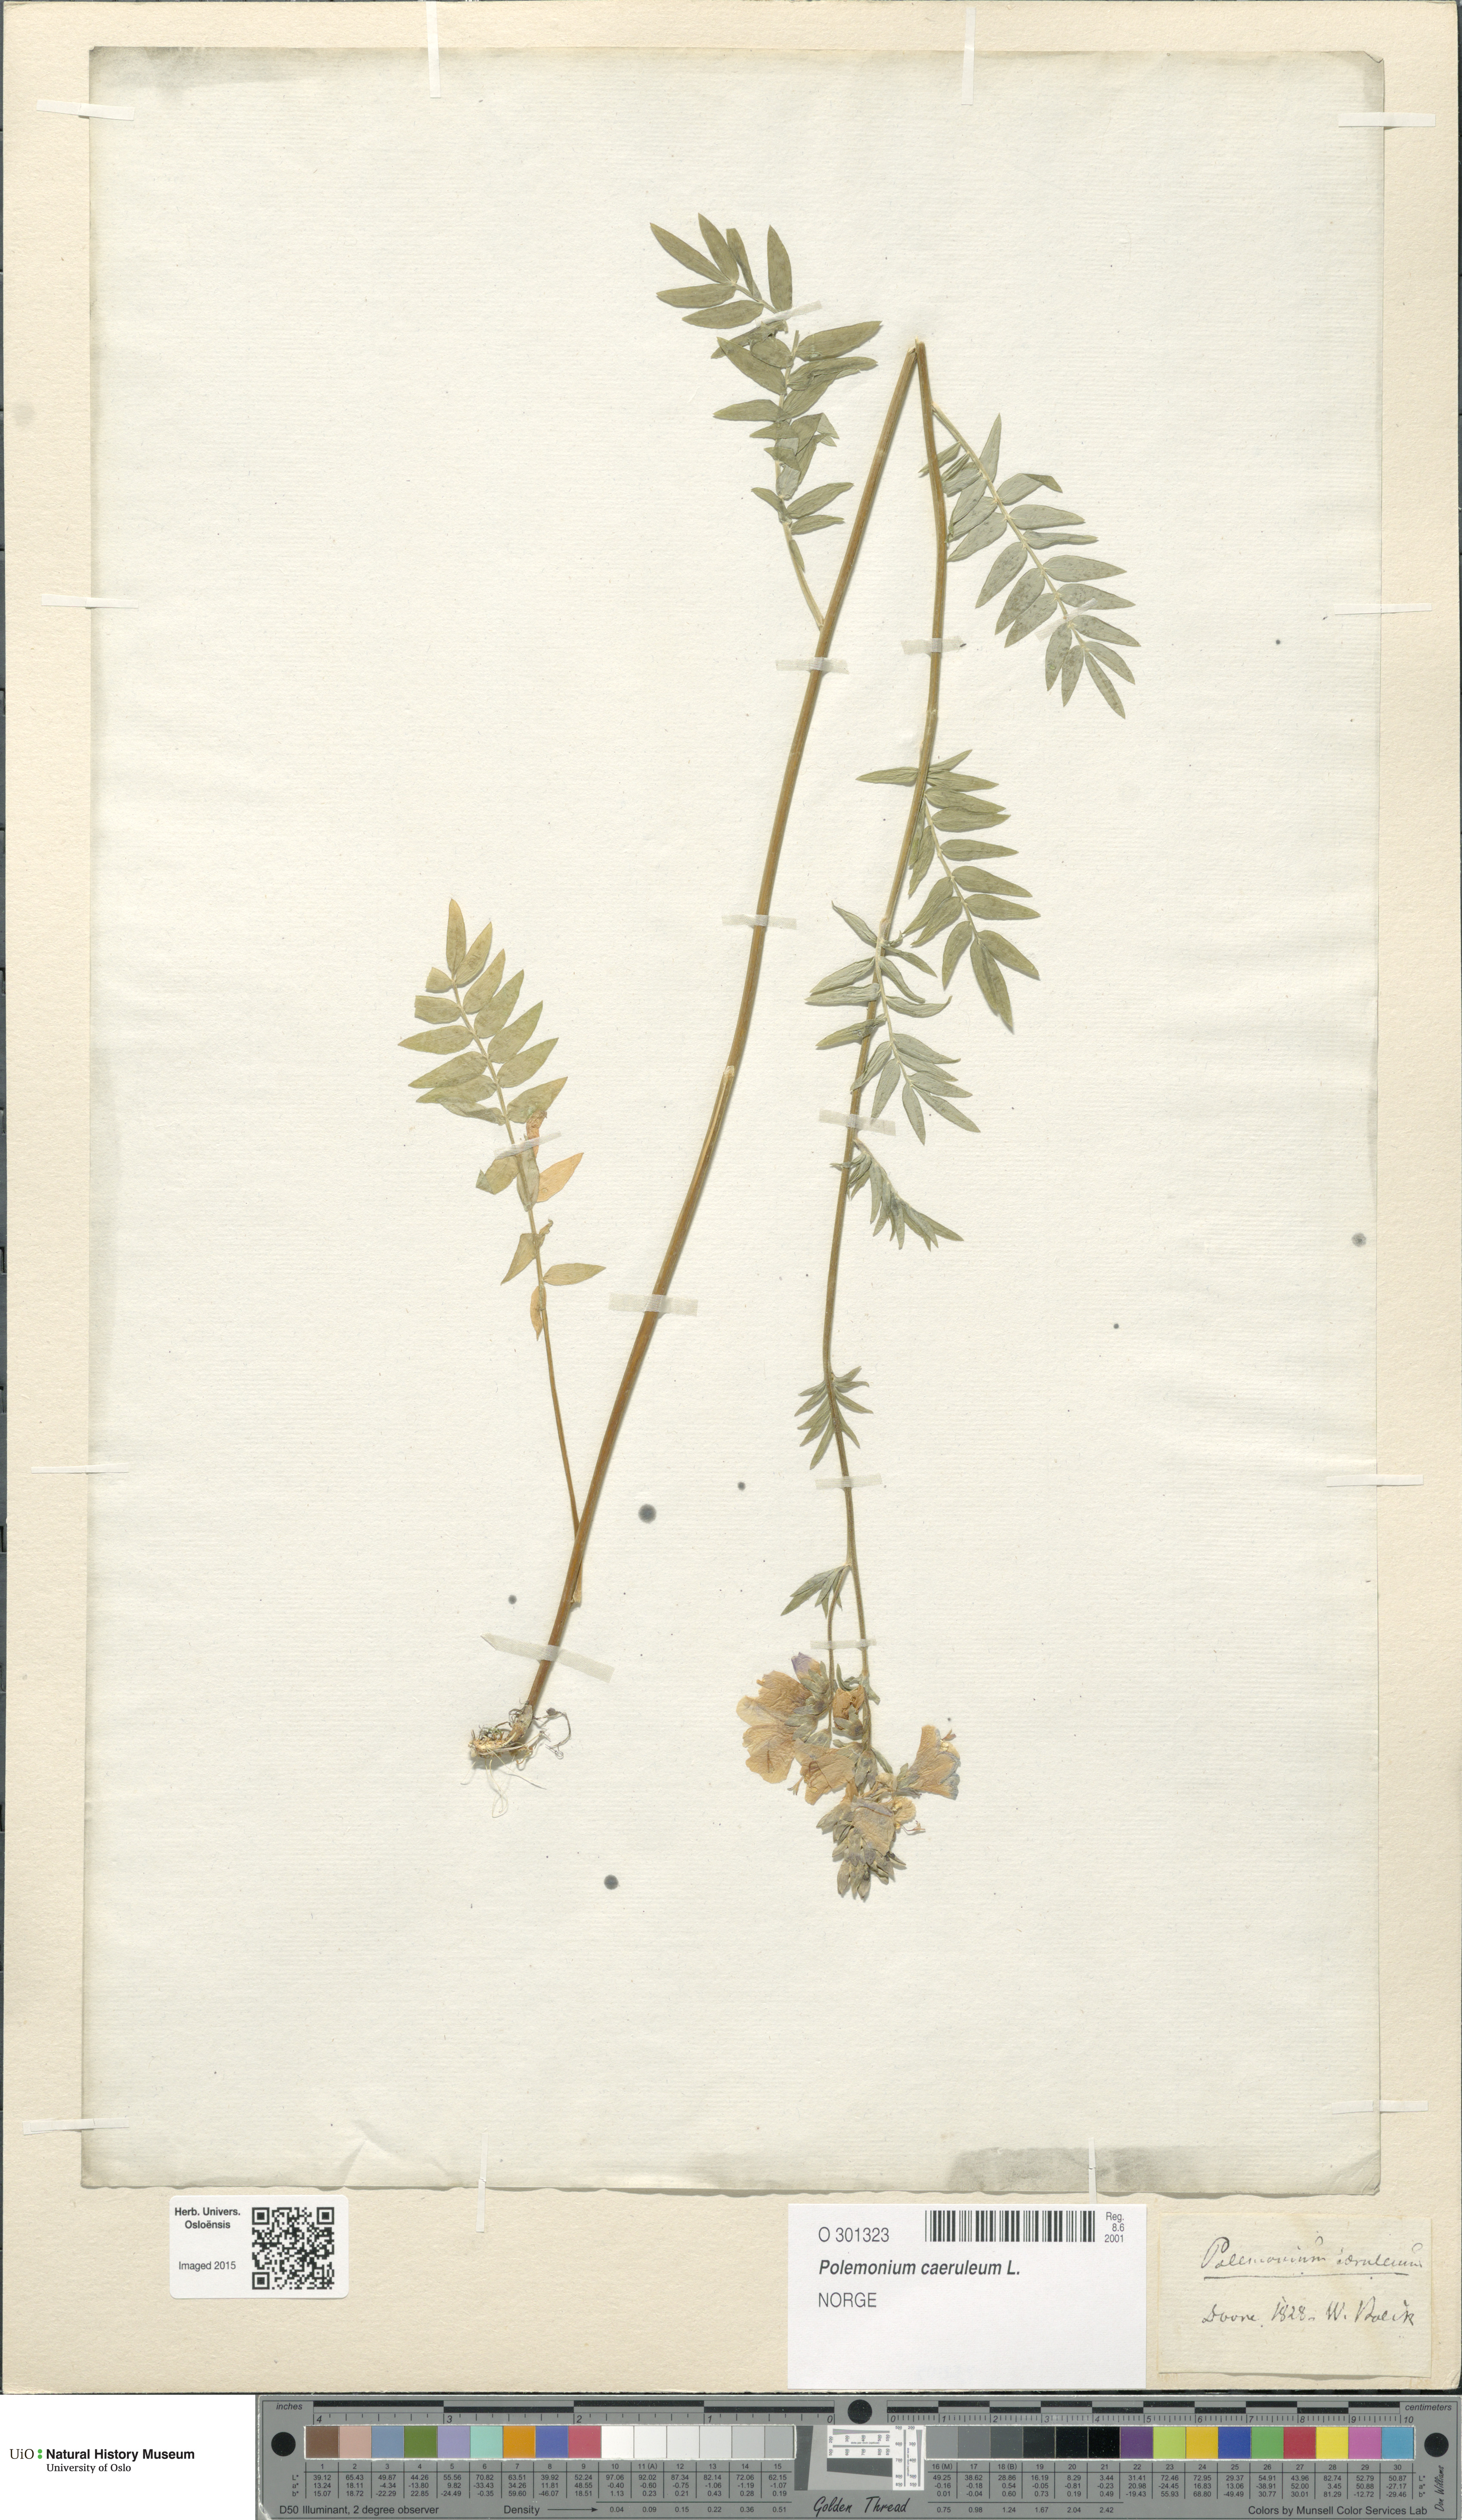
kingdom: Plantae
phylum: Tracheophyta
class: Magnoliopsida
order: Ericales
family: Polemoniaceae
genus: Polemonium
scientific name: Polemonium caeruleum
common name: Jacob's-ladder
